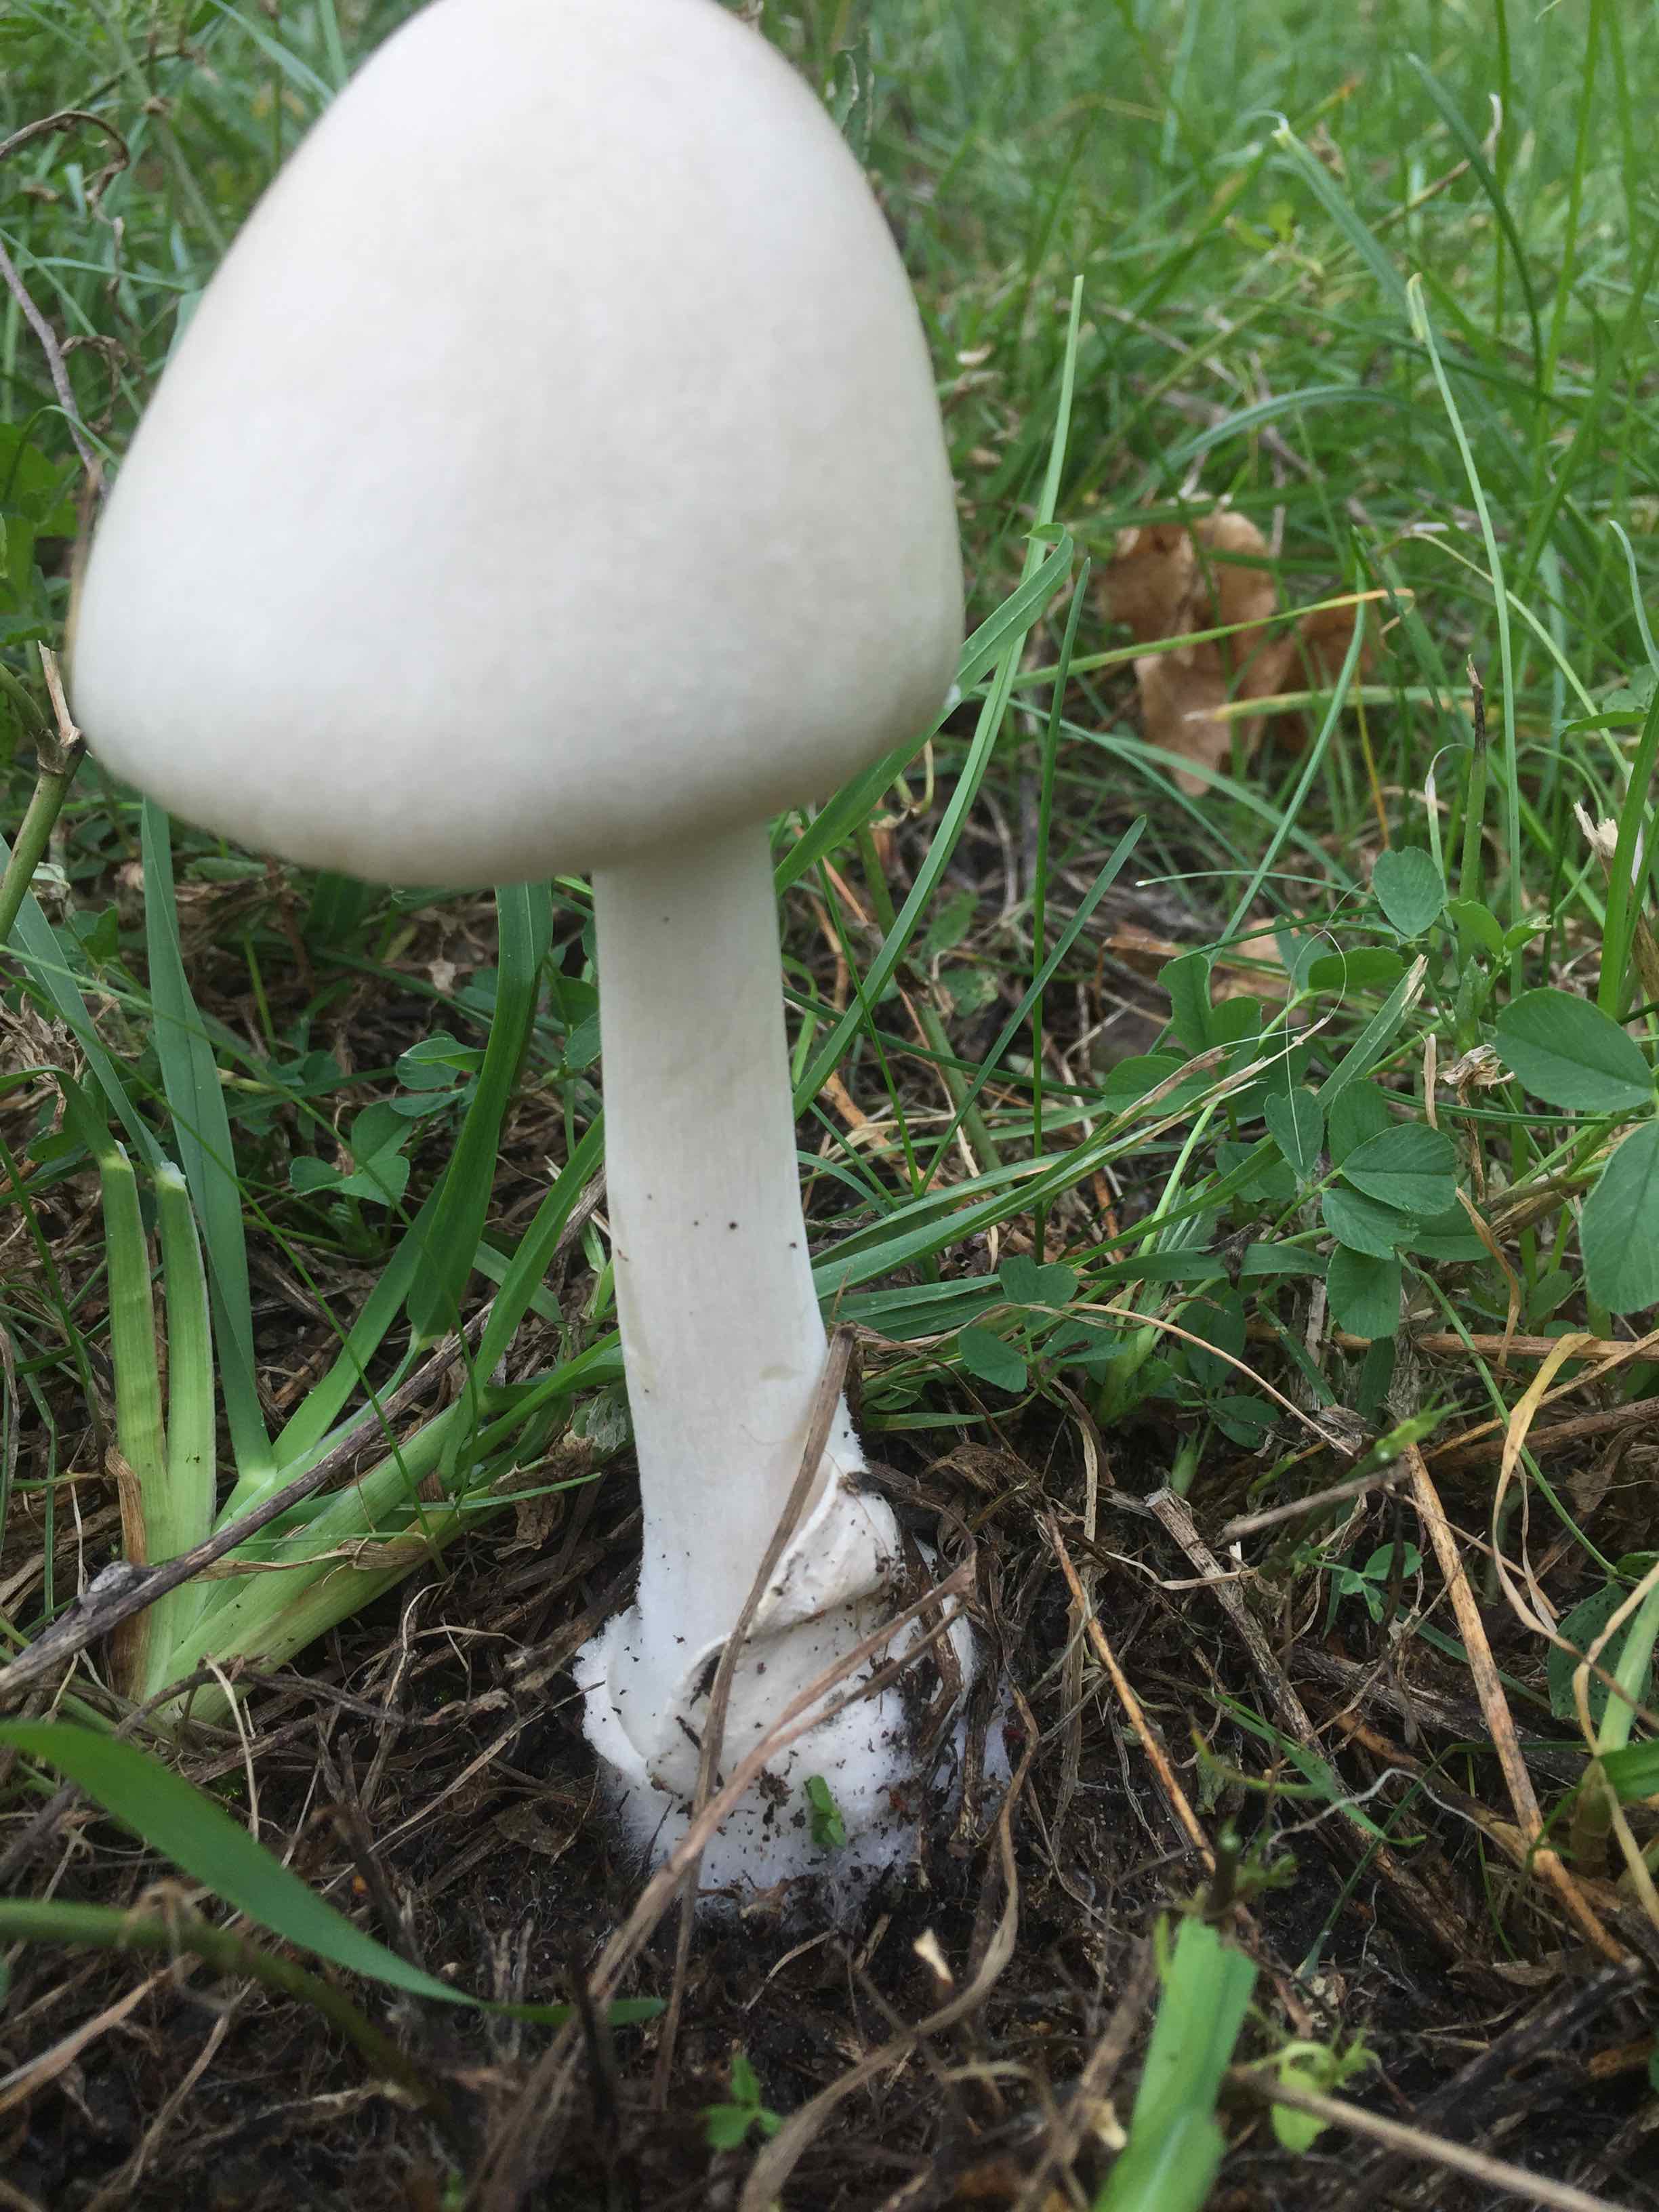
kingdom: Fungi
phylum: Basidiomycota
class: Agaricomycetes
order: Agaricales
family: Pluteaceae
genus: Volvopluteus
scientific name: Volvopluteus gloiocephalus
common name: høj posesvamp
